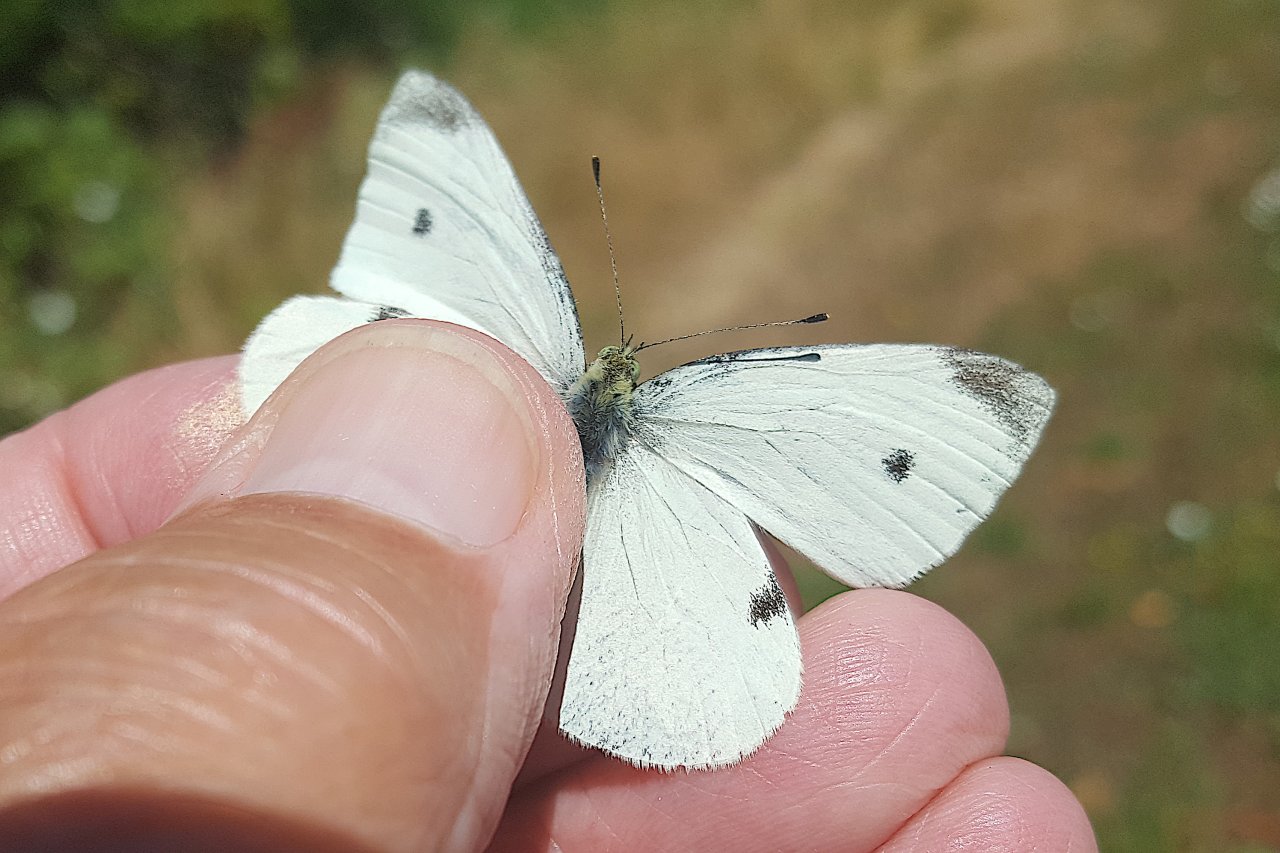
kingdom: Animalia
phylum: Arthropoda
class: Insecta
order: Lepidoptera
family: Pieridae
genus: Pieris
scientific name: Pieris rapae
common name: Cabbage White
